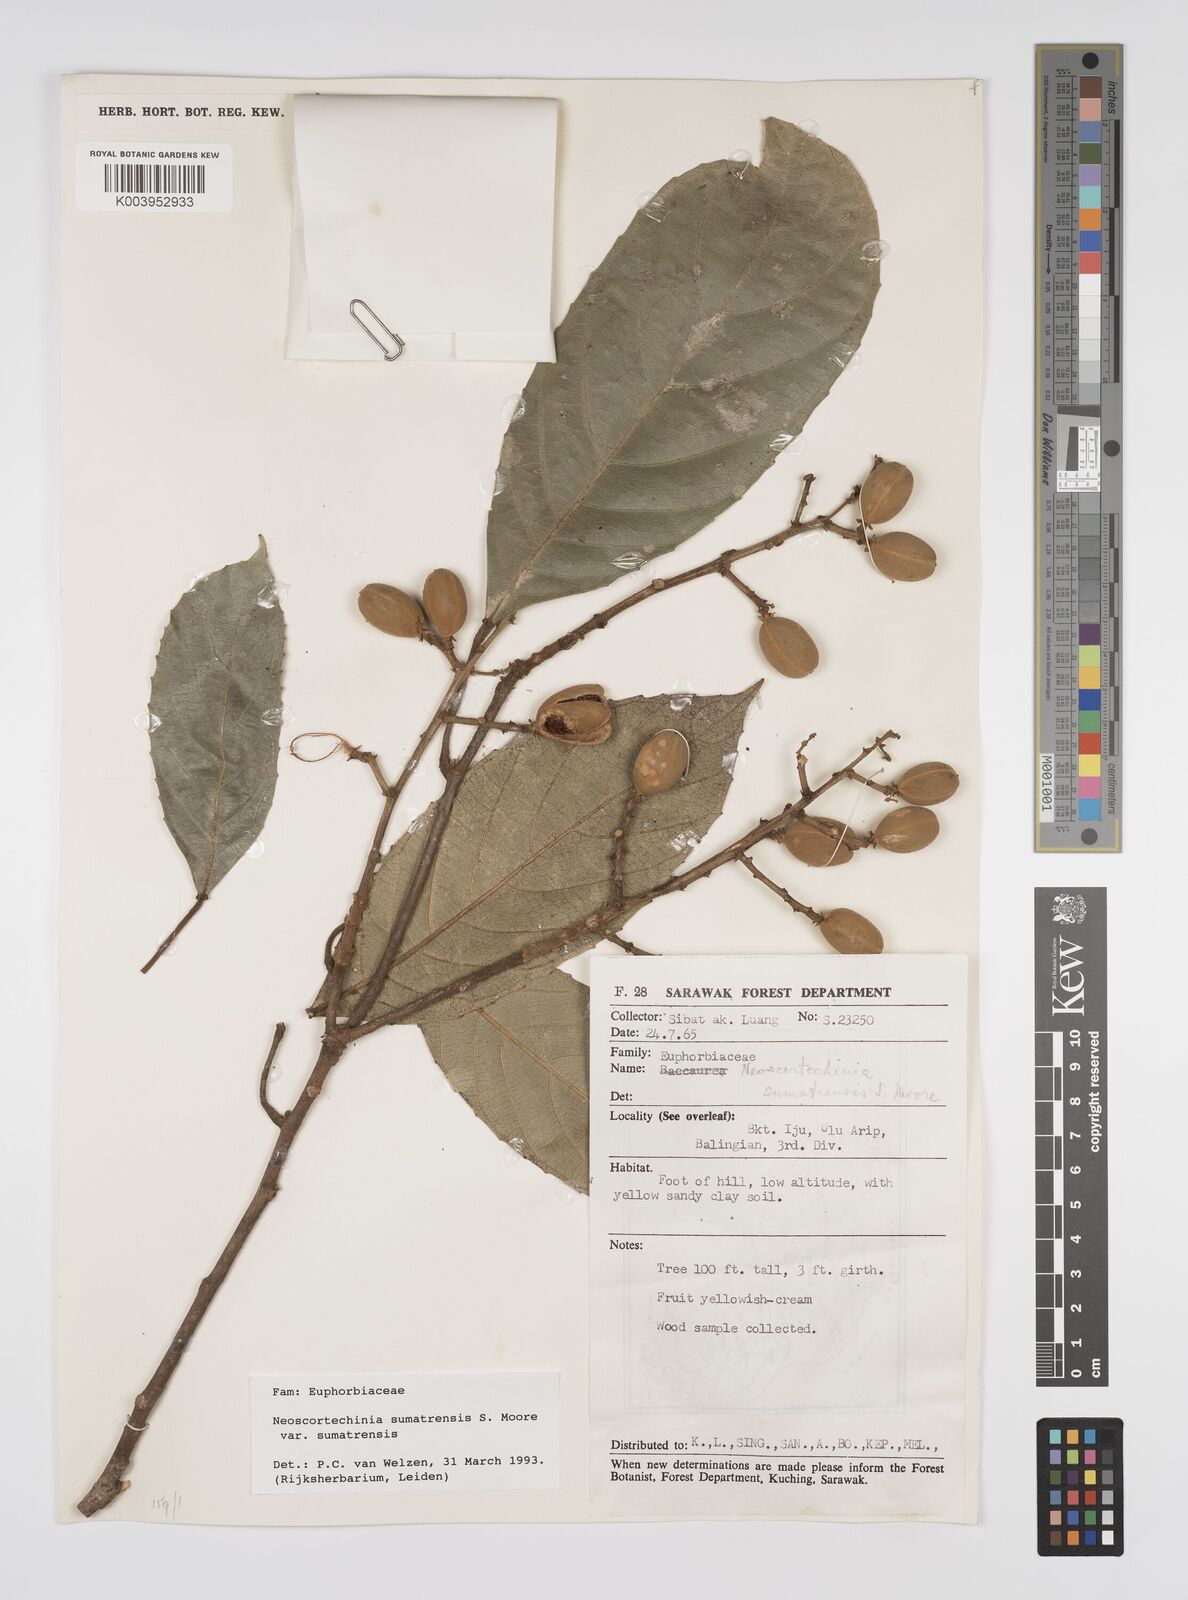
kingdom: Plantae
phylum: Tracheophyta
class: Magnoliopsida
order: Malpighiales
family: Euphorbiaceae
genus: Neoscortechinia
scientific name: Neoscortechinia sumatrensis
